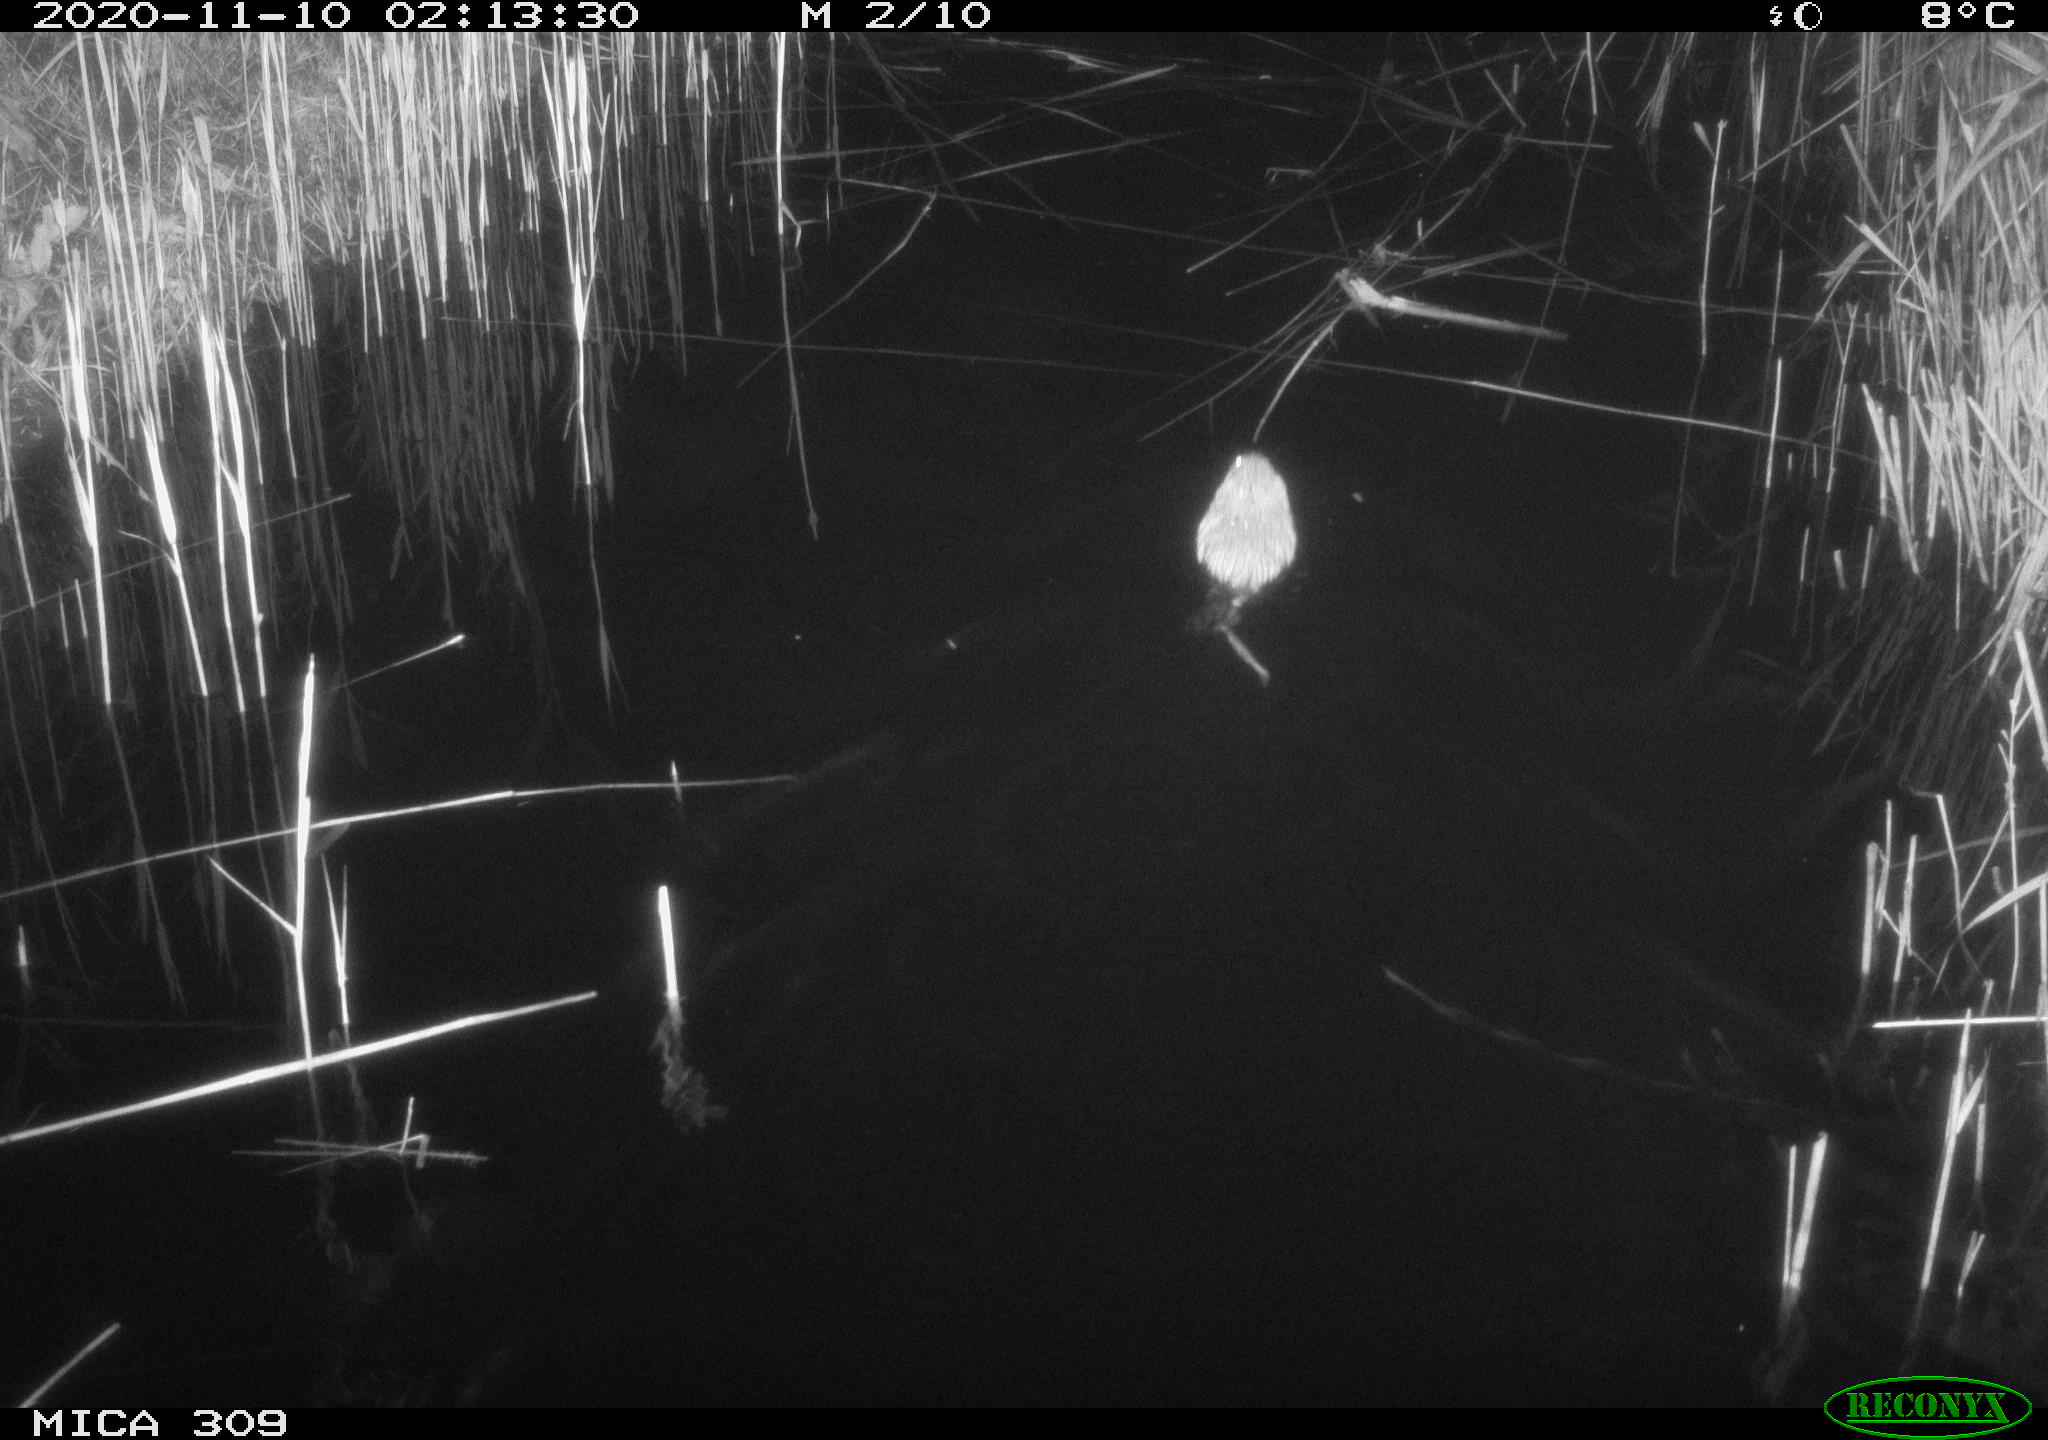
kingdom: Animalia
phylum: Chordata
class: Mammalia
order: Rodentia
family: Muridae
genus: Rattus
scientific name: Rattus norvegicus
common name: Brown rat
